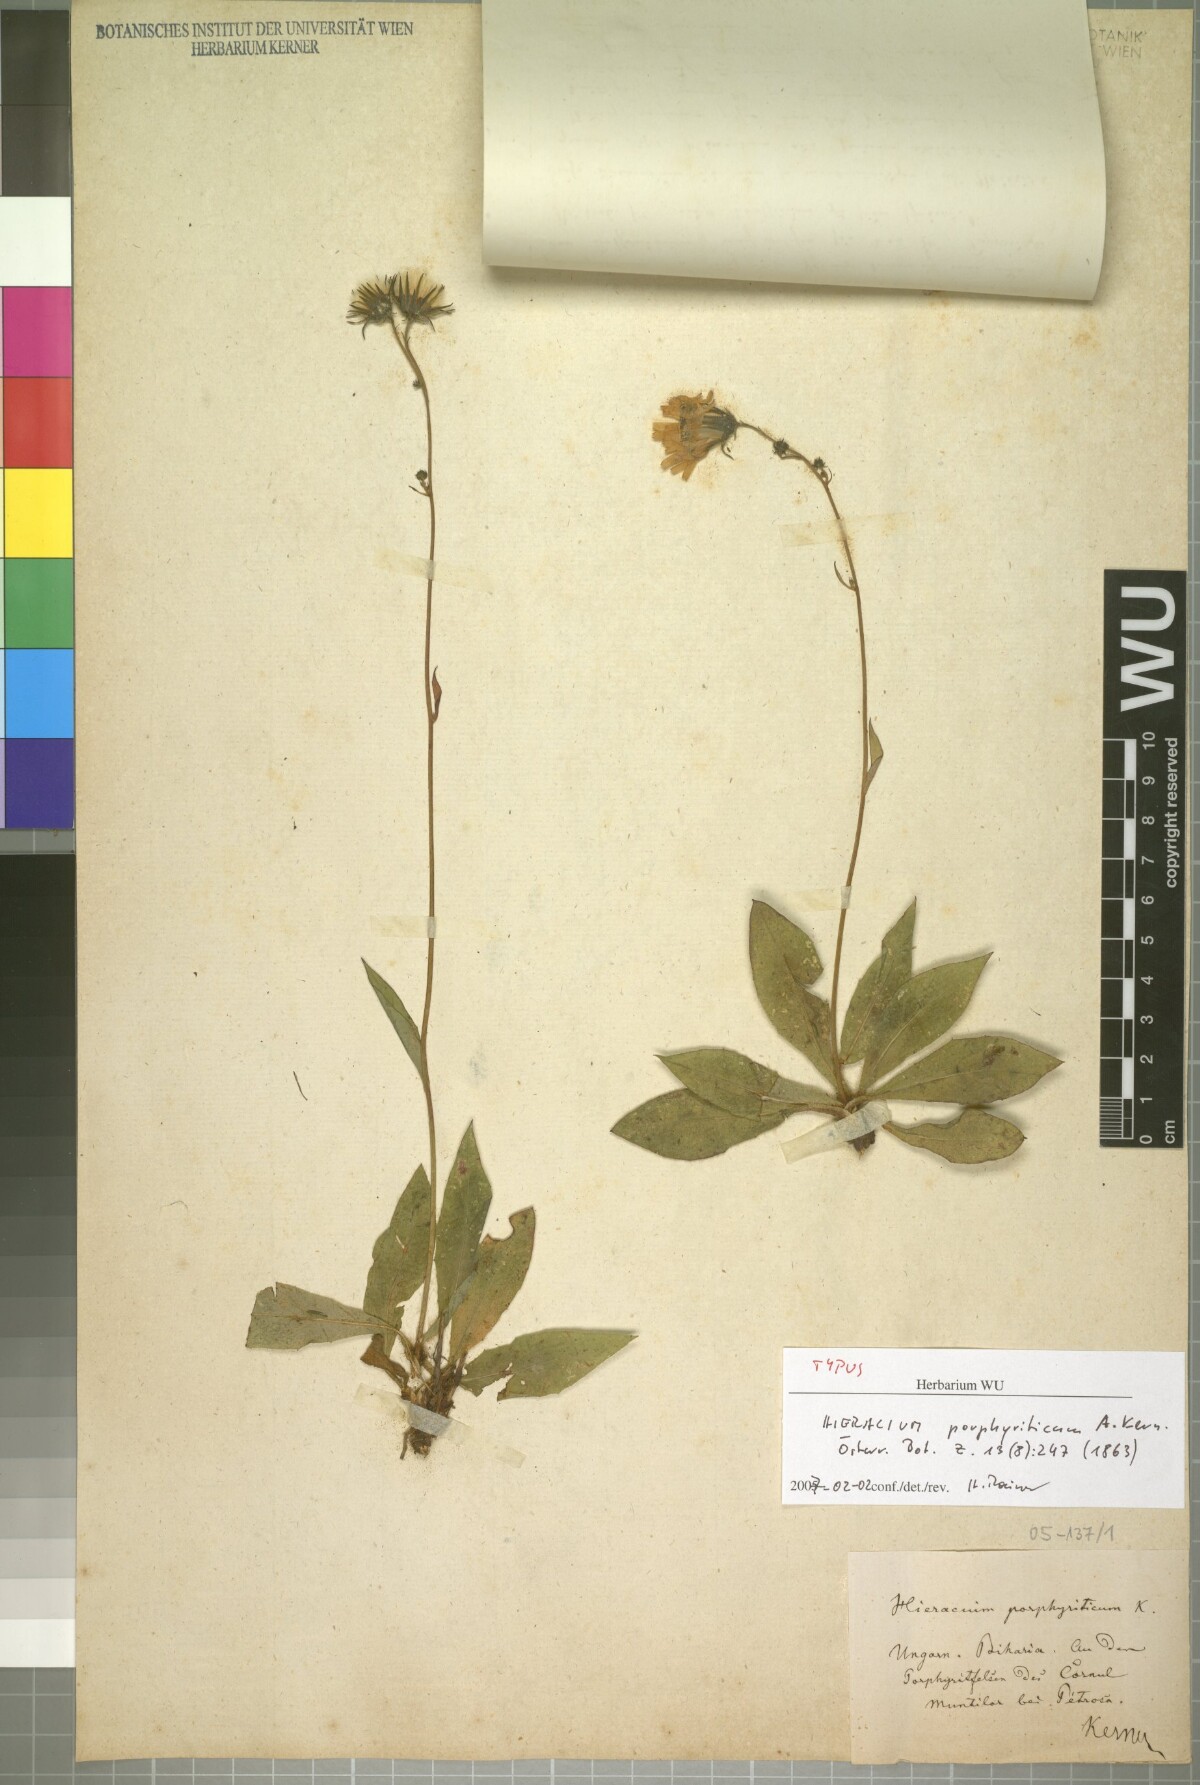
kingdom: Plantae
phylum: Tracheophyta
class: Magnoliopsida
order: Asterales
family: Asteraceae
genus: Hieracium
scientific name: Hieracium sparsum
